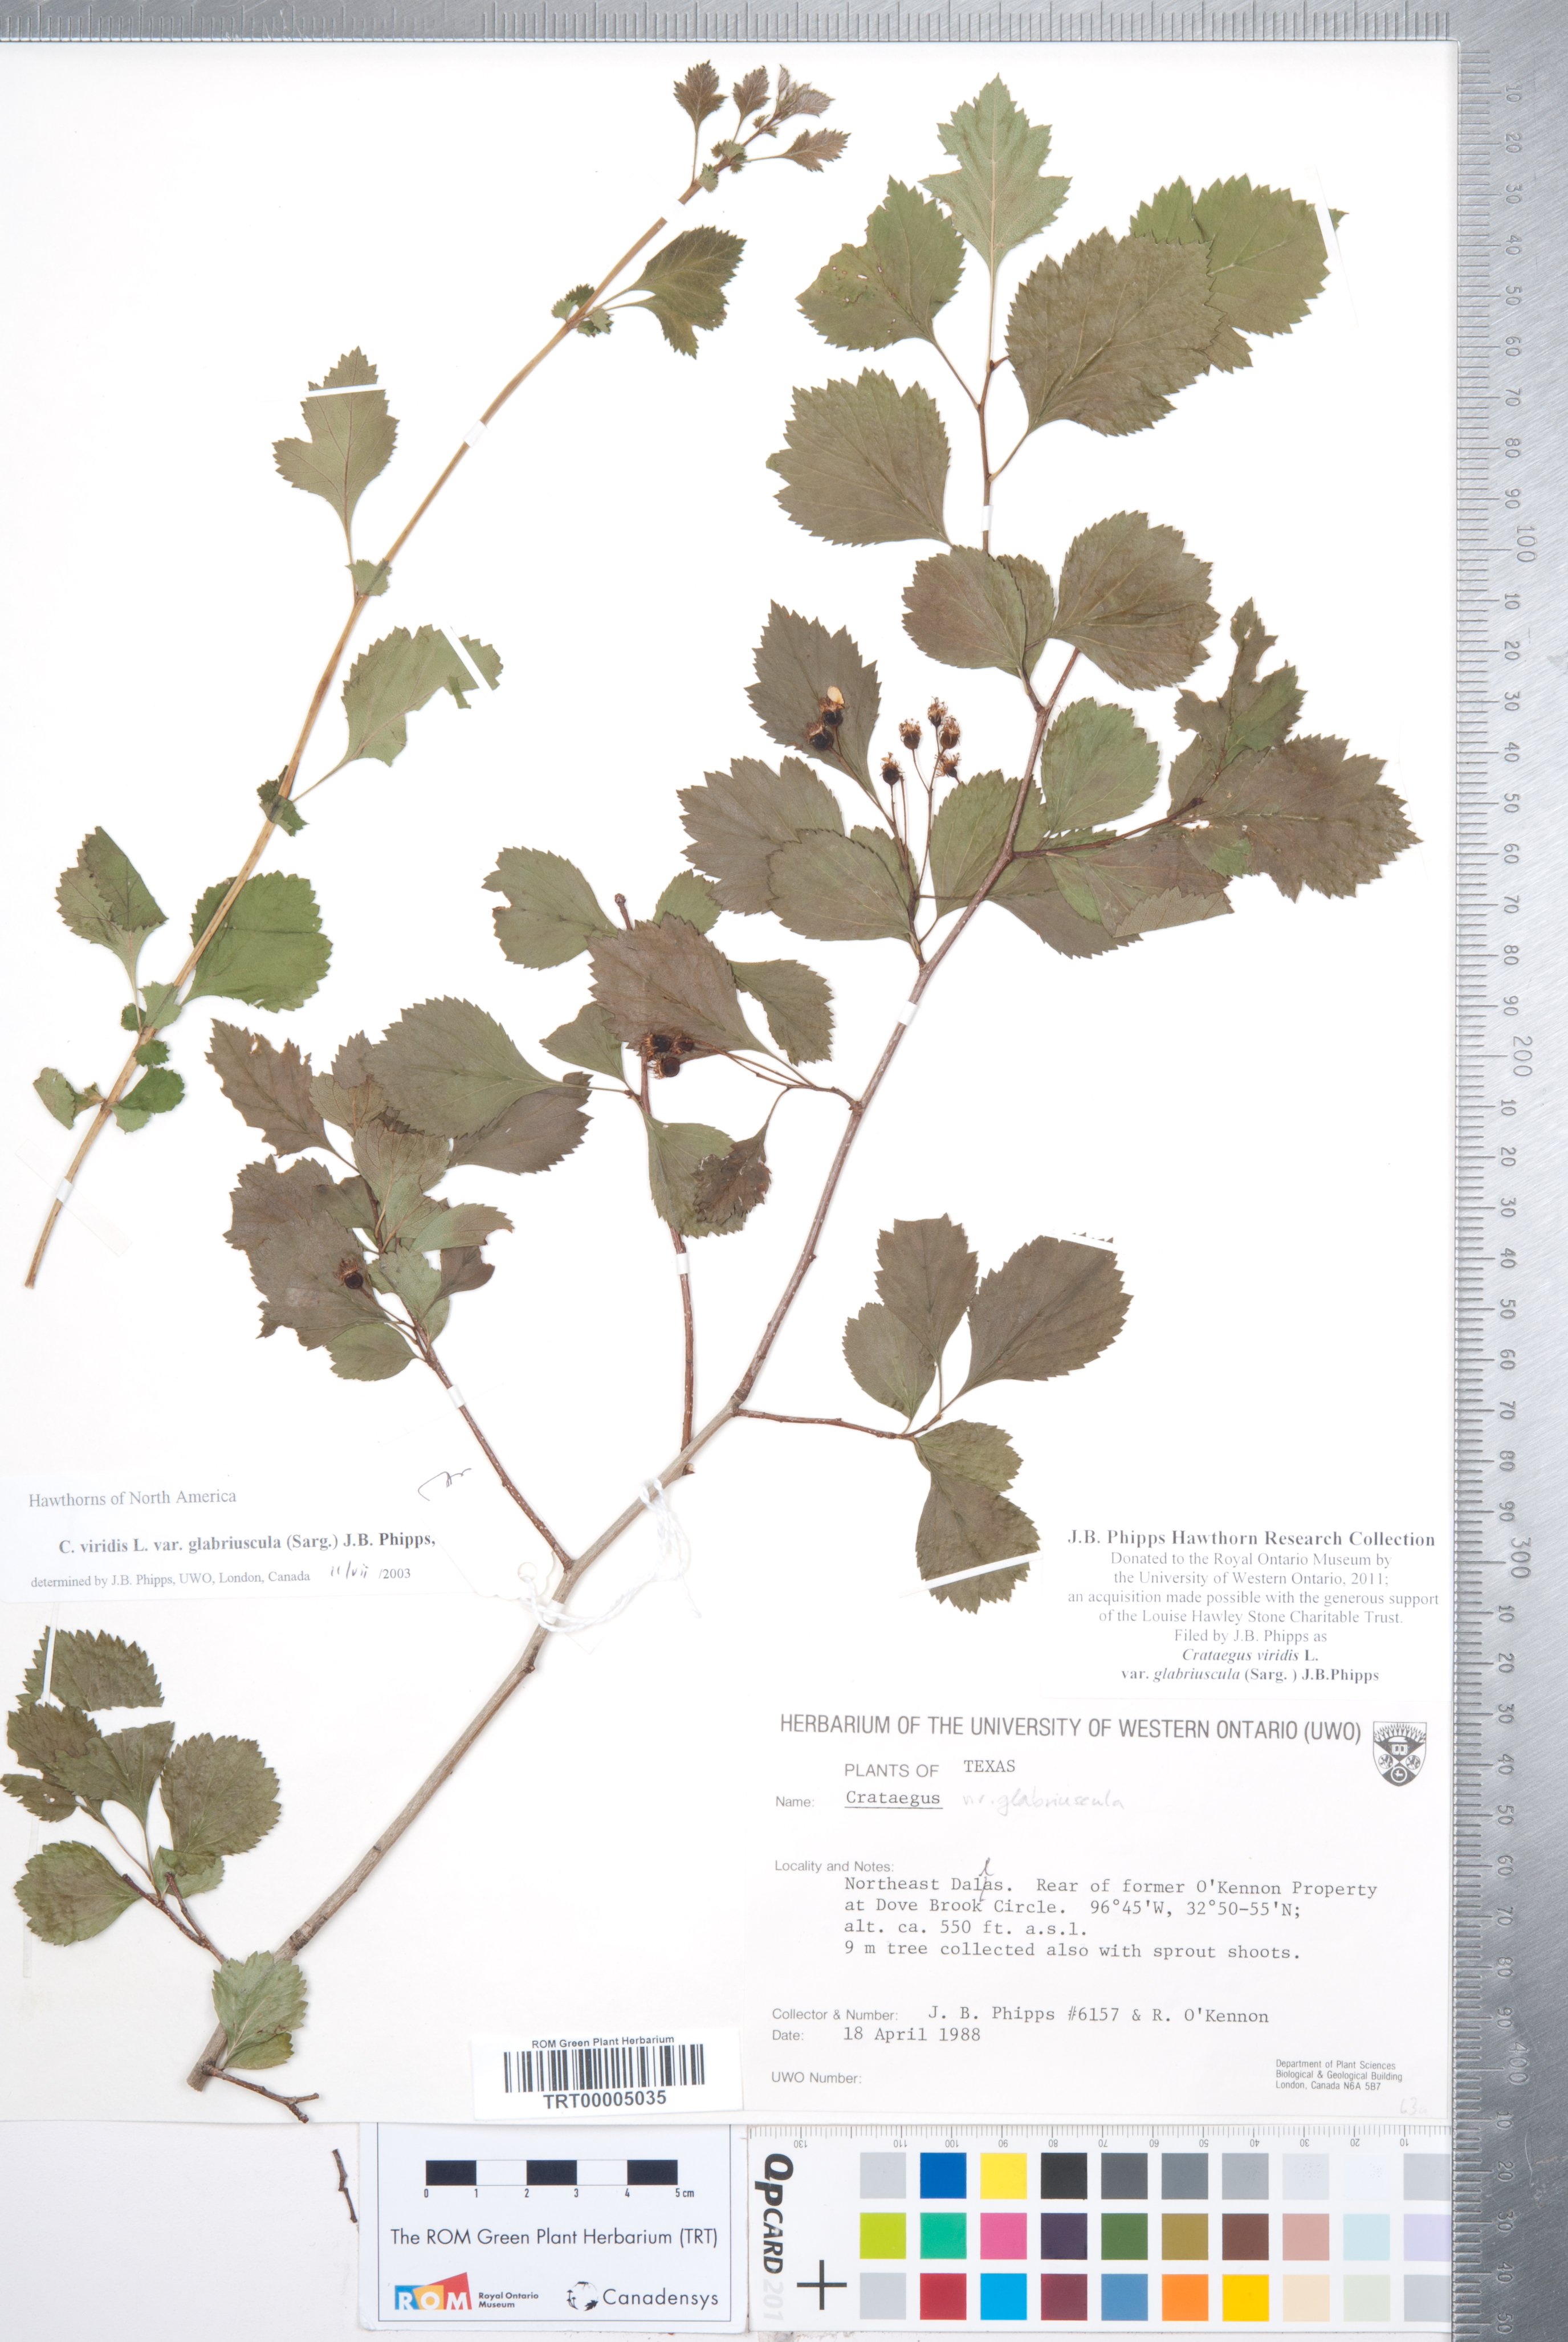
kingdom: Plantae
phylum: Tracheophyta
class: Magnoliopsida
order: Rosales
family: Rosaceae
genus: Crataegus
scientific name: Crataegus viridis
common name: Southernthorn
